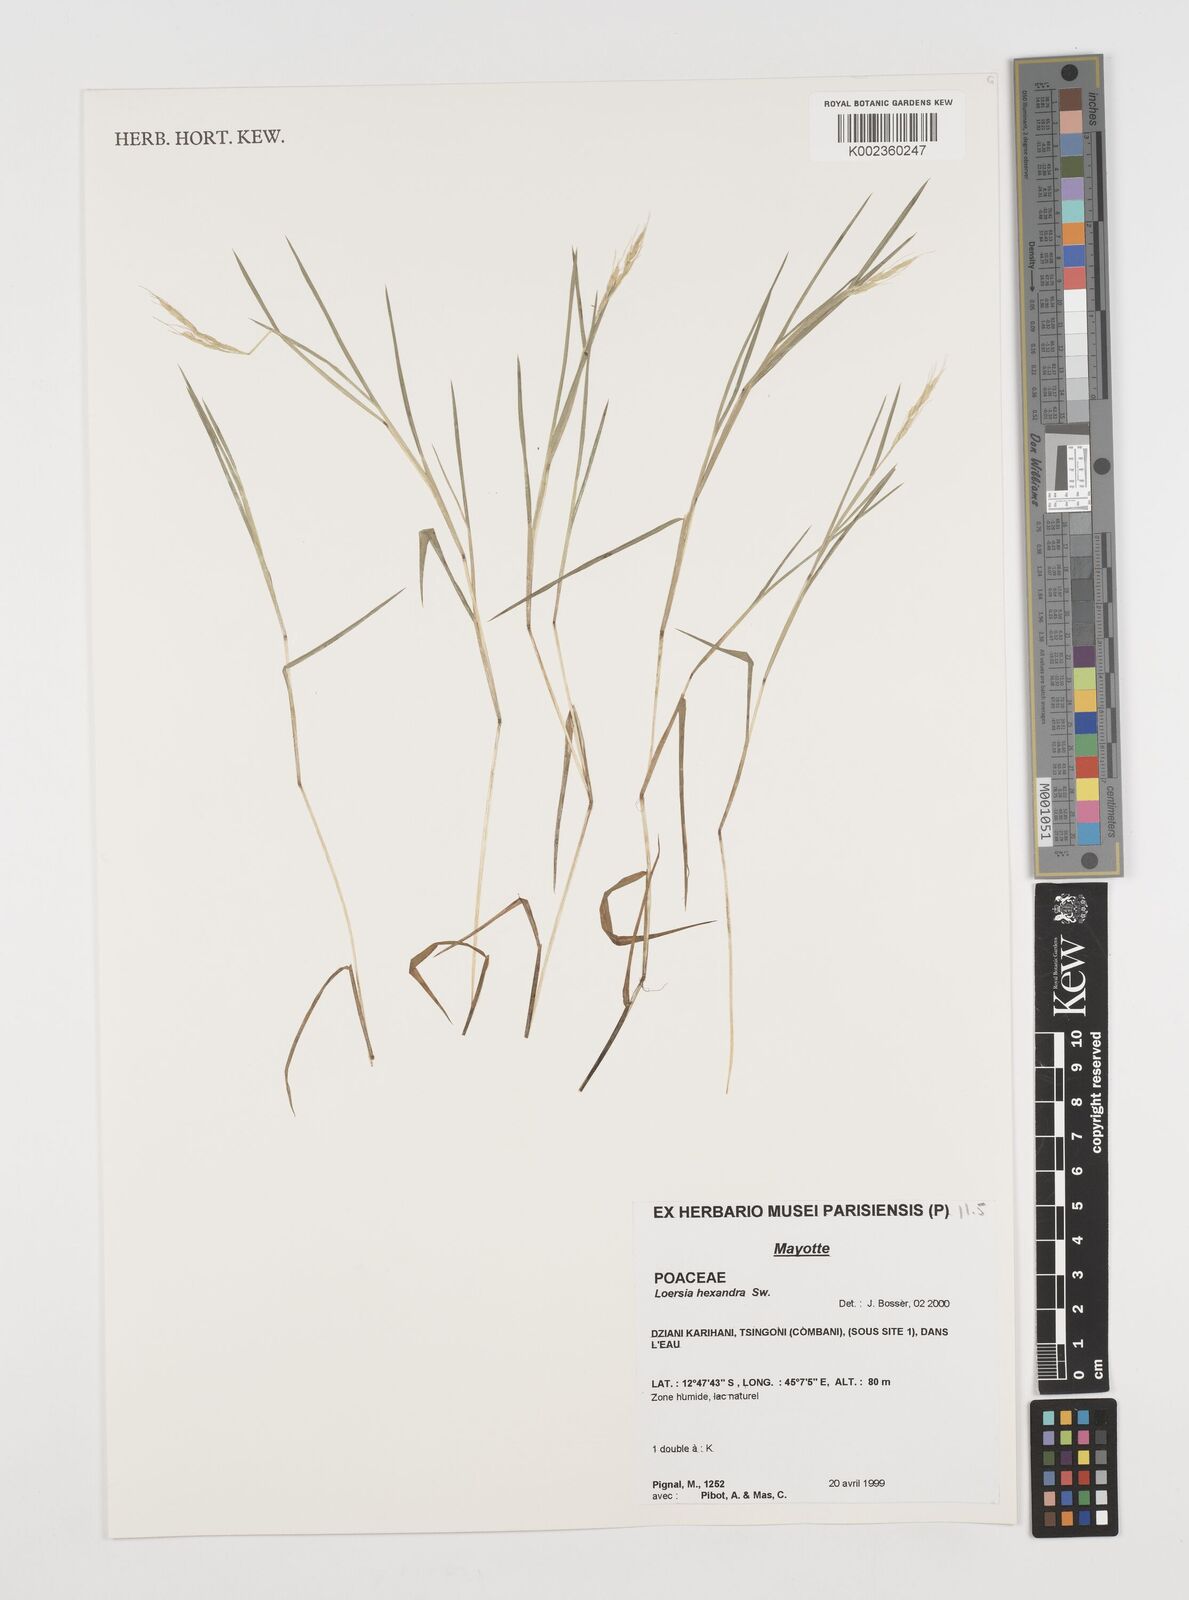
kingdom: Plantae
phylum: Tracheophyta
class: Liliopsida
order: Poales
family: Poaceae
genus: Leersia
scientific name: Leersia hexandra
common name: Southern cut grass
